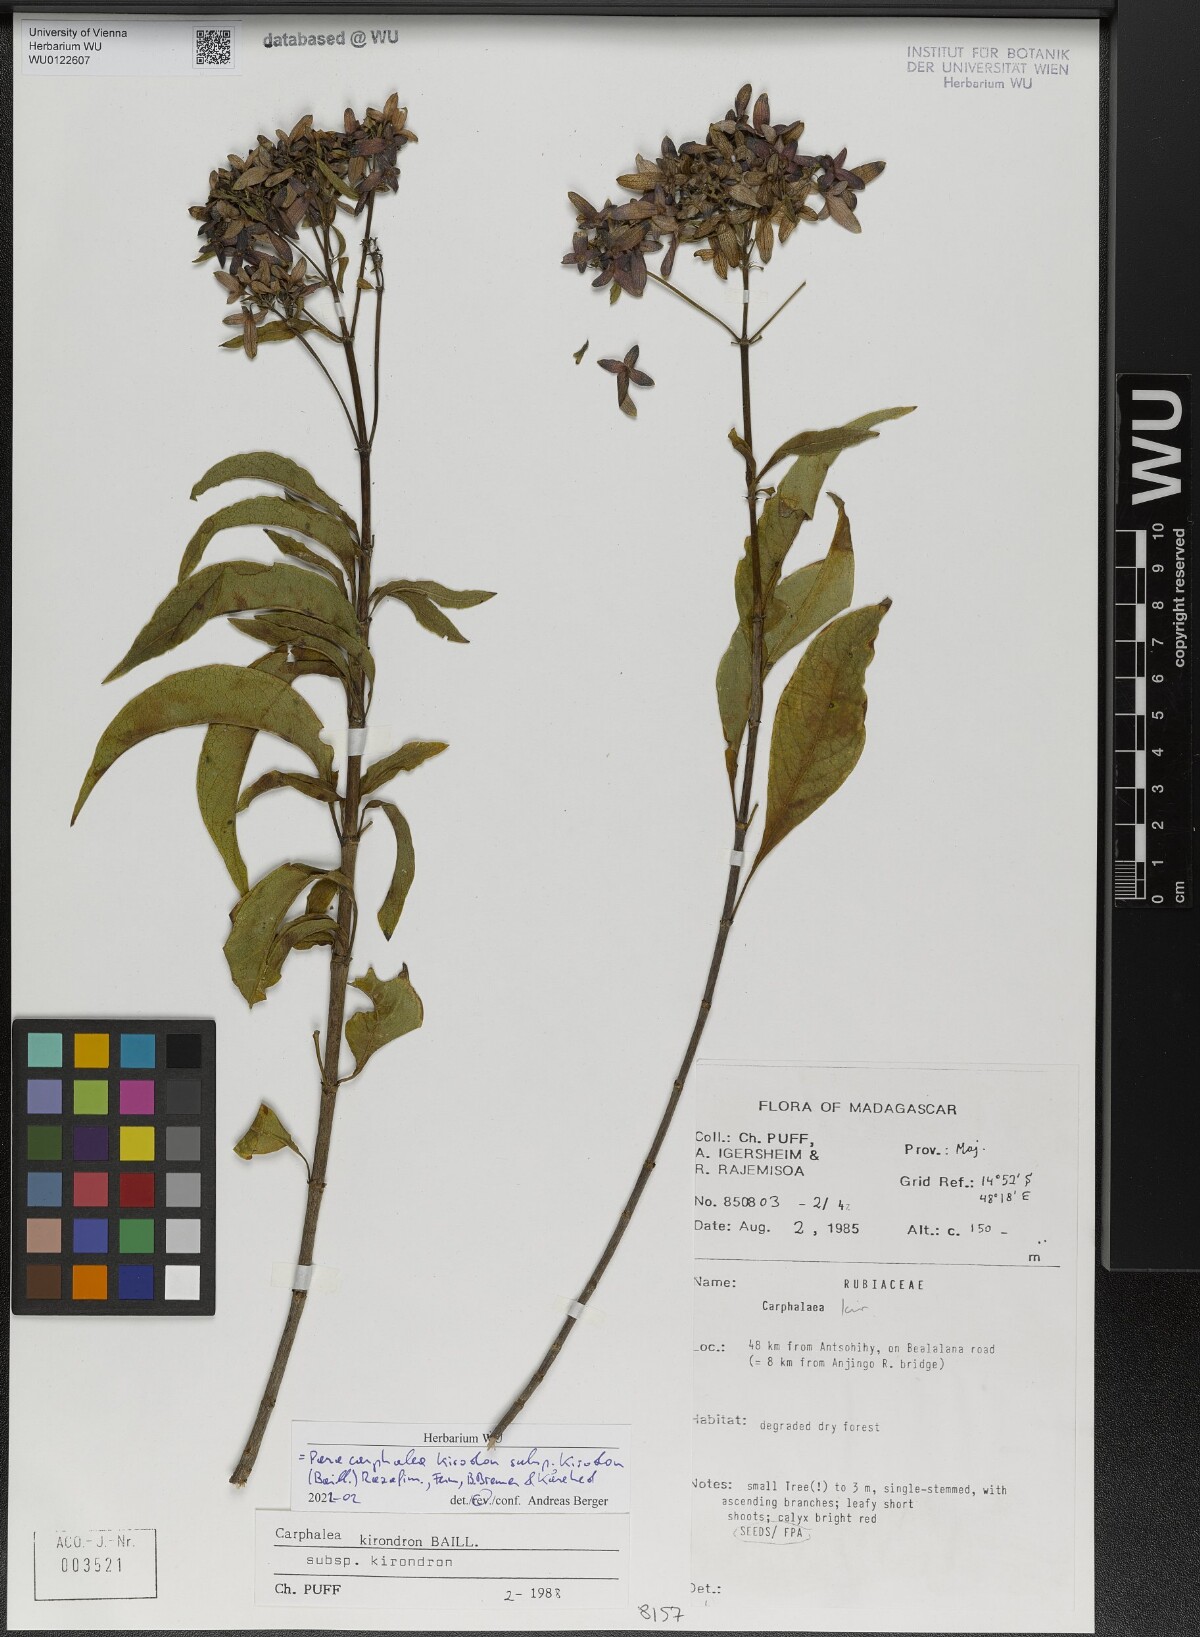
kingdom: Plantae
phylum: Tracheophyta
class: Magnoliopsida
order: Gentianales
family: Rubiaceae
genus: Paracarphalea
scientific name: Paracarphalea kirondron
